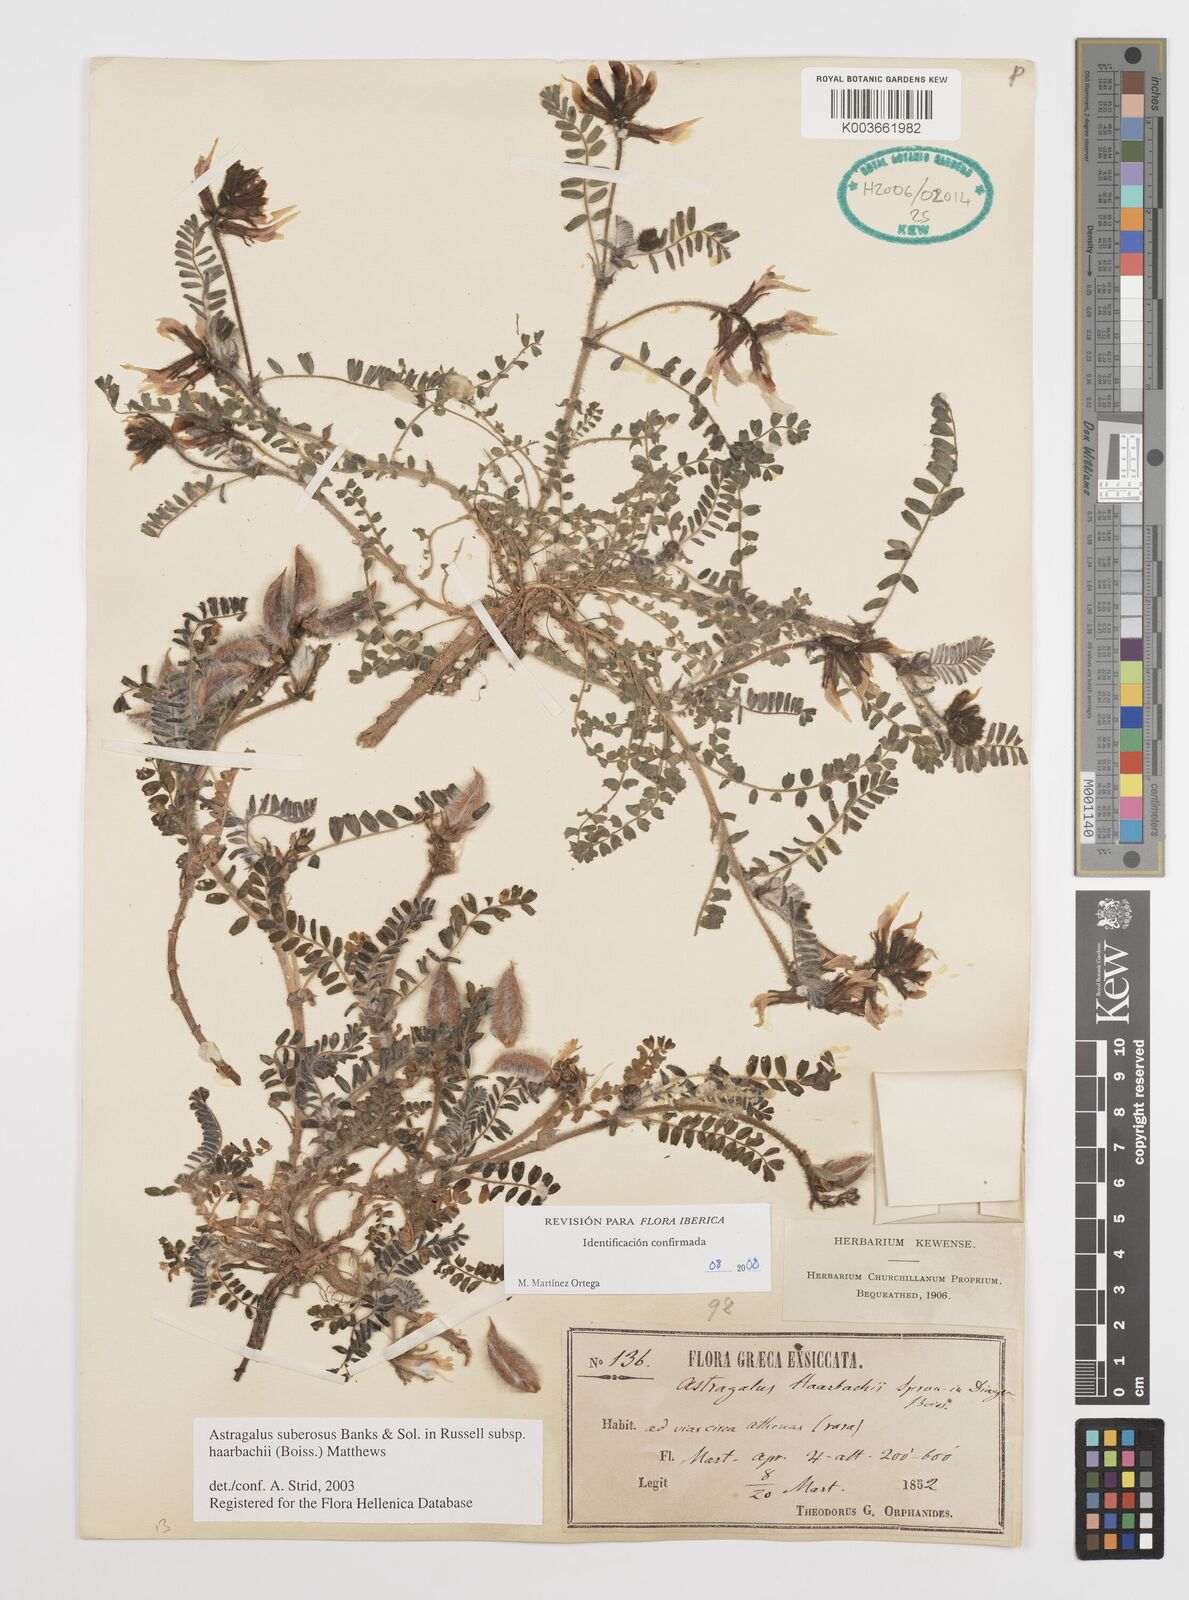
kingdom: Plantae
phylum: Tracheophyta
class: Magnoliopsida
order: Fabales
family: Fabaceae
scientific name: Fabaceae
